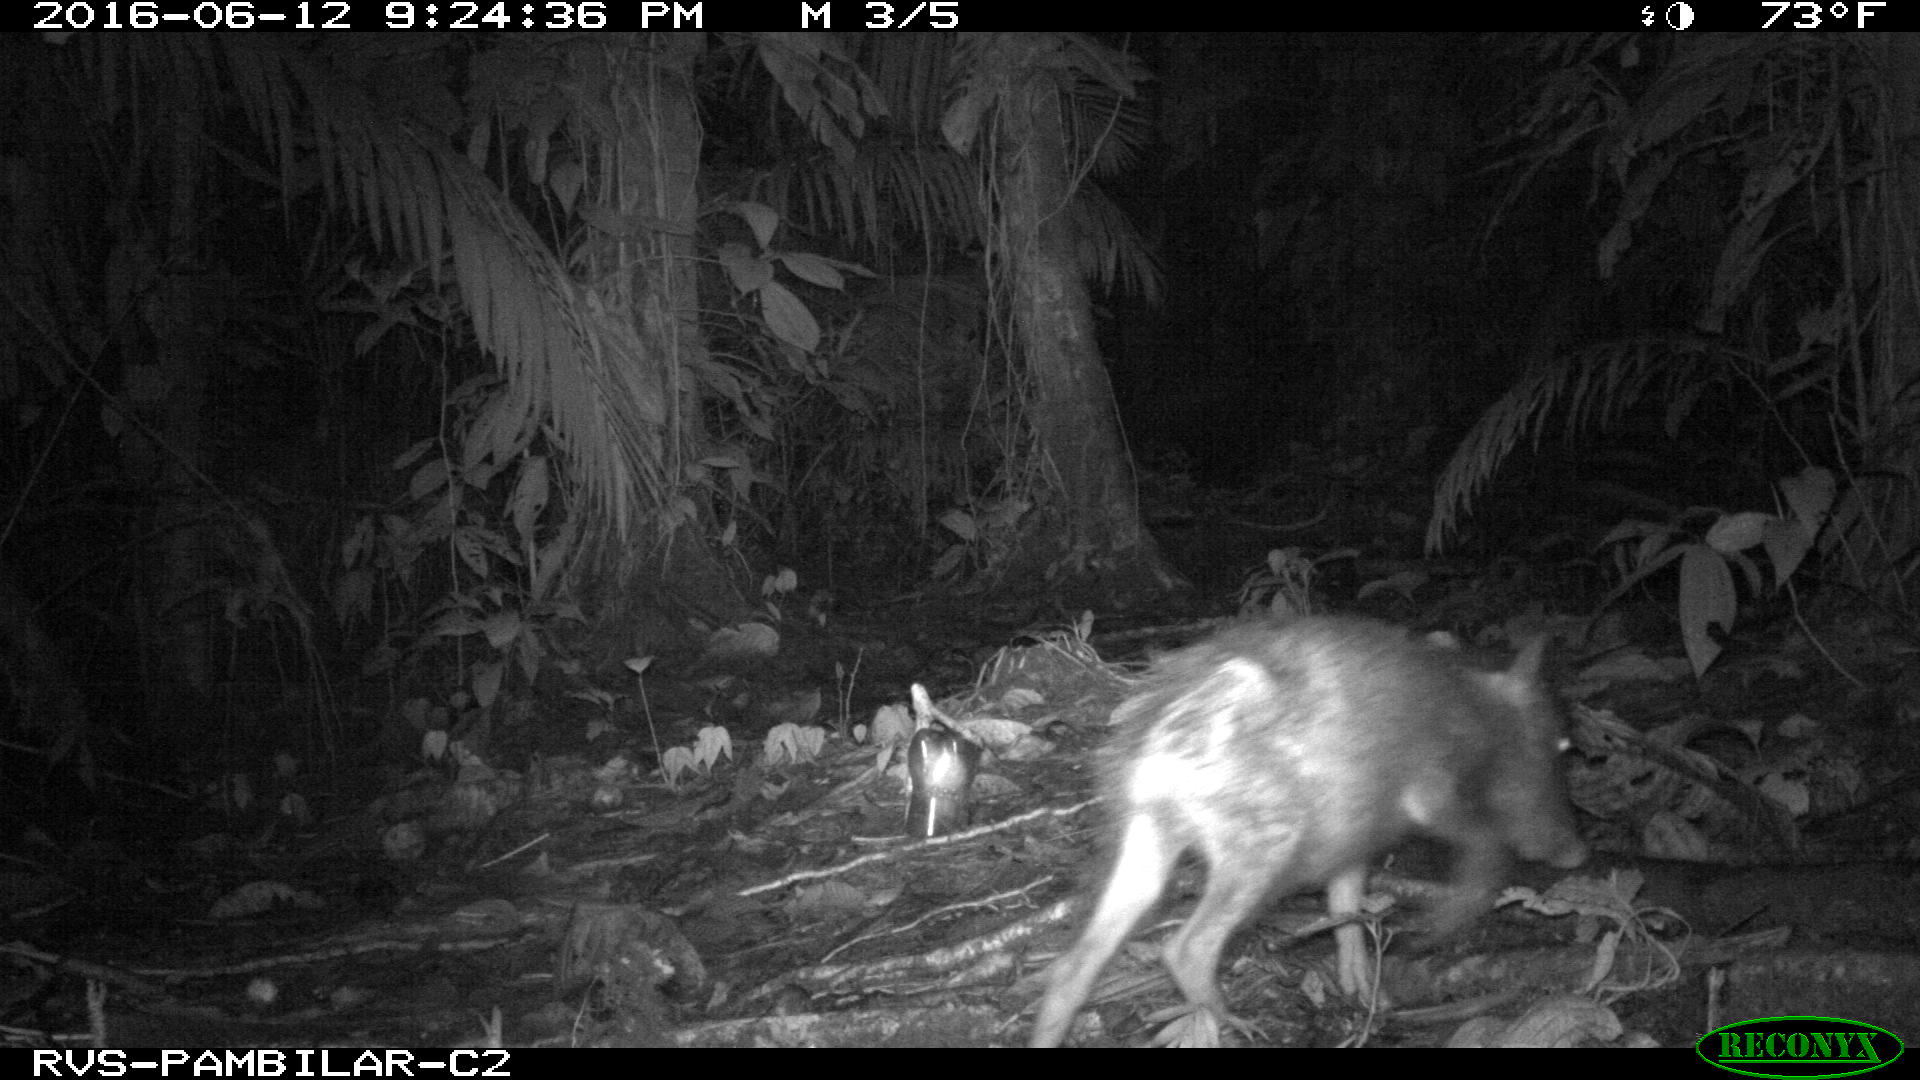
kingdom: Animalia
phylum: Chordata
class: Mammalia
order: Artiodactyla
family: Tayassuidae
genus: Tayassu
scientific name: Tayassu pecari
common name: White-lipped peccary
